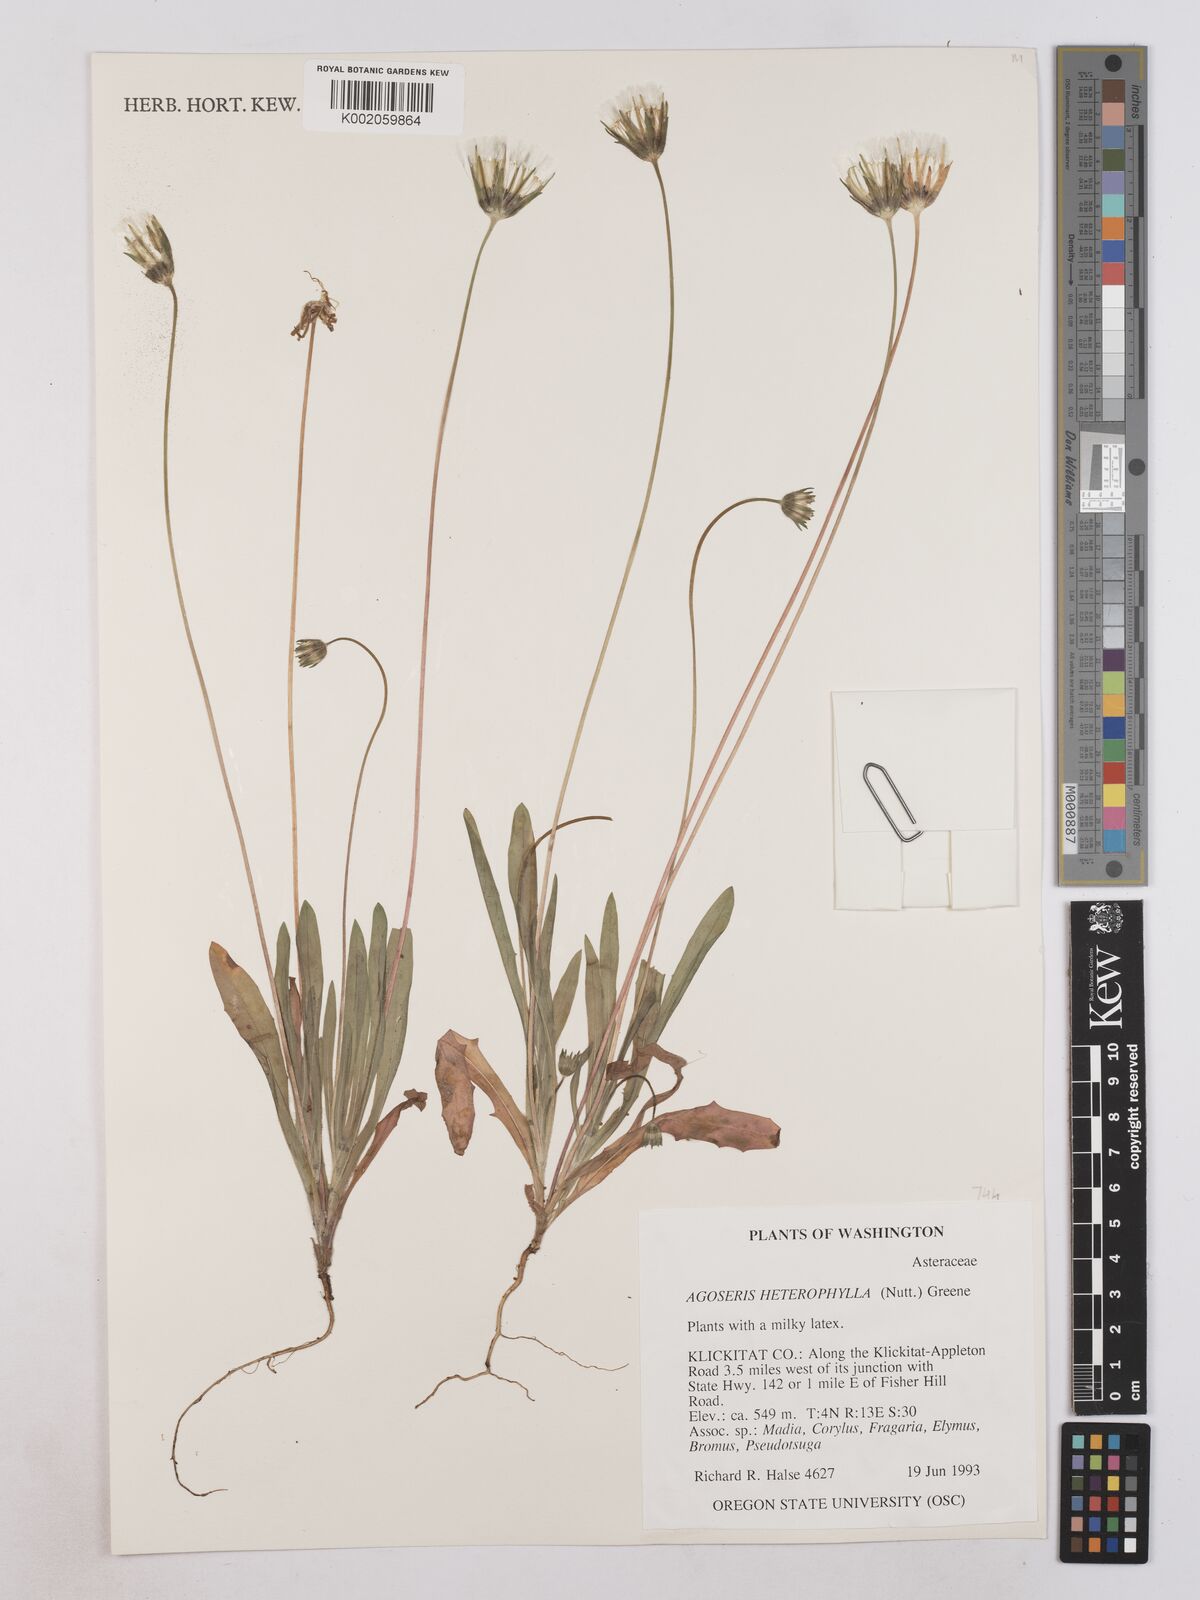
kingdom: Plantae
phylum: Tracheophyta
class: Magnoliopsida
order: Asterales
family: Asteraceae
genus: Agoseris
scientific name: Agoseris heterophylla
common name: Annual agoseris
